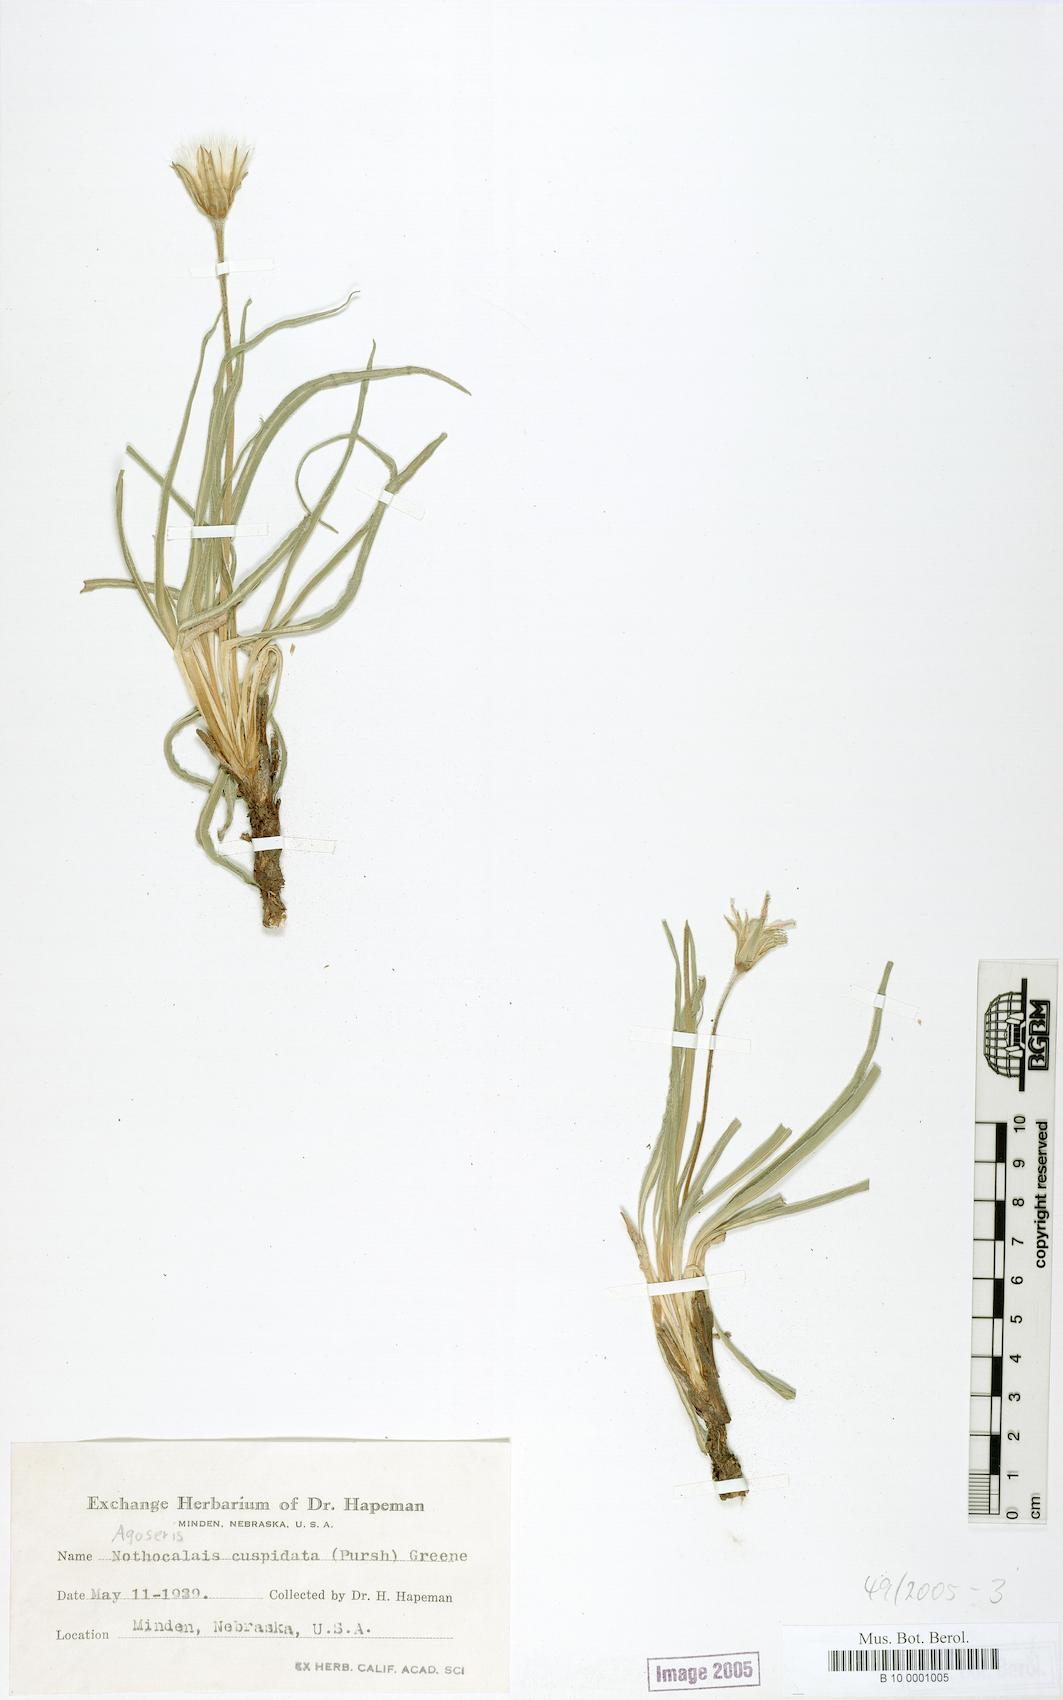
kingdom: Plantae
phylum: Tracheophyta
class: Magnoliopsida
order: Asterales
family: Asteraceae
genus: Microseris
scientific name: Microseris cuspidata
